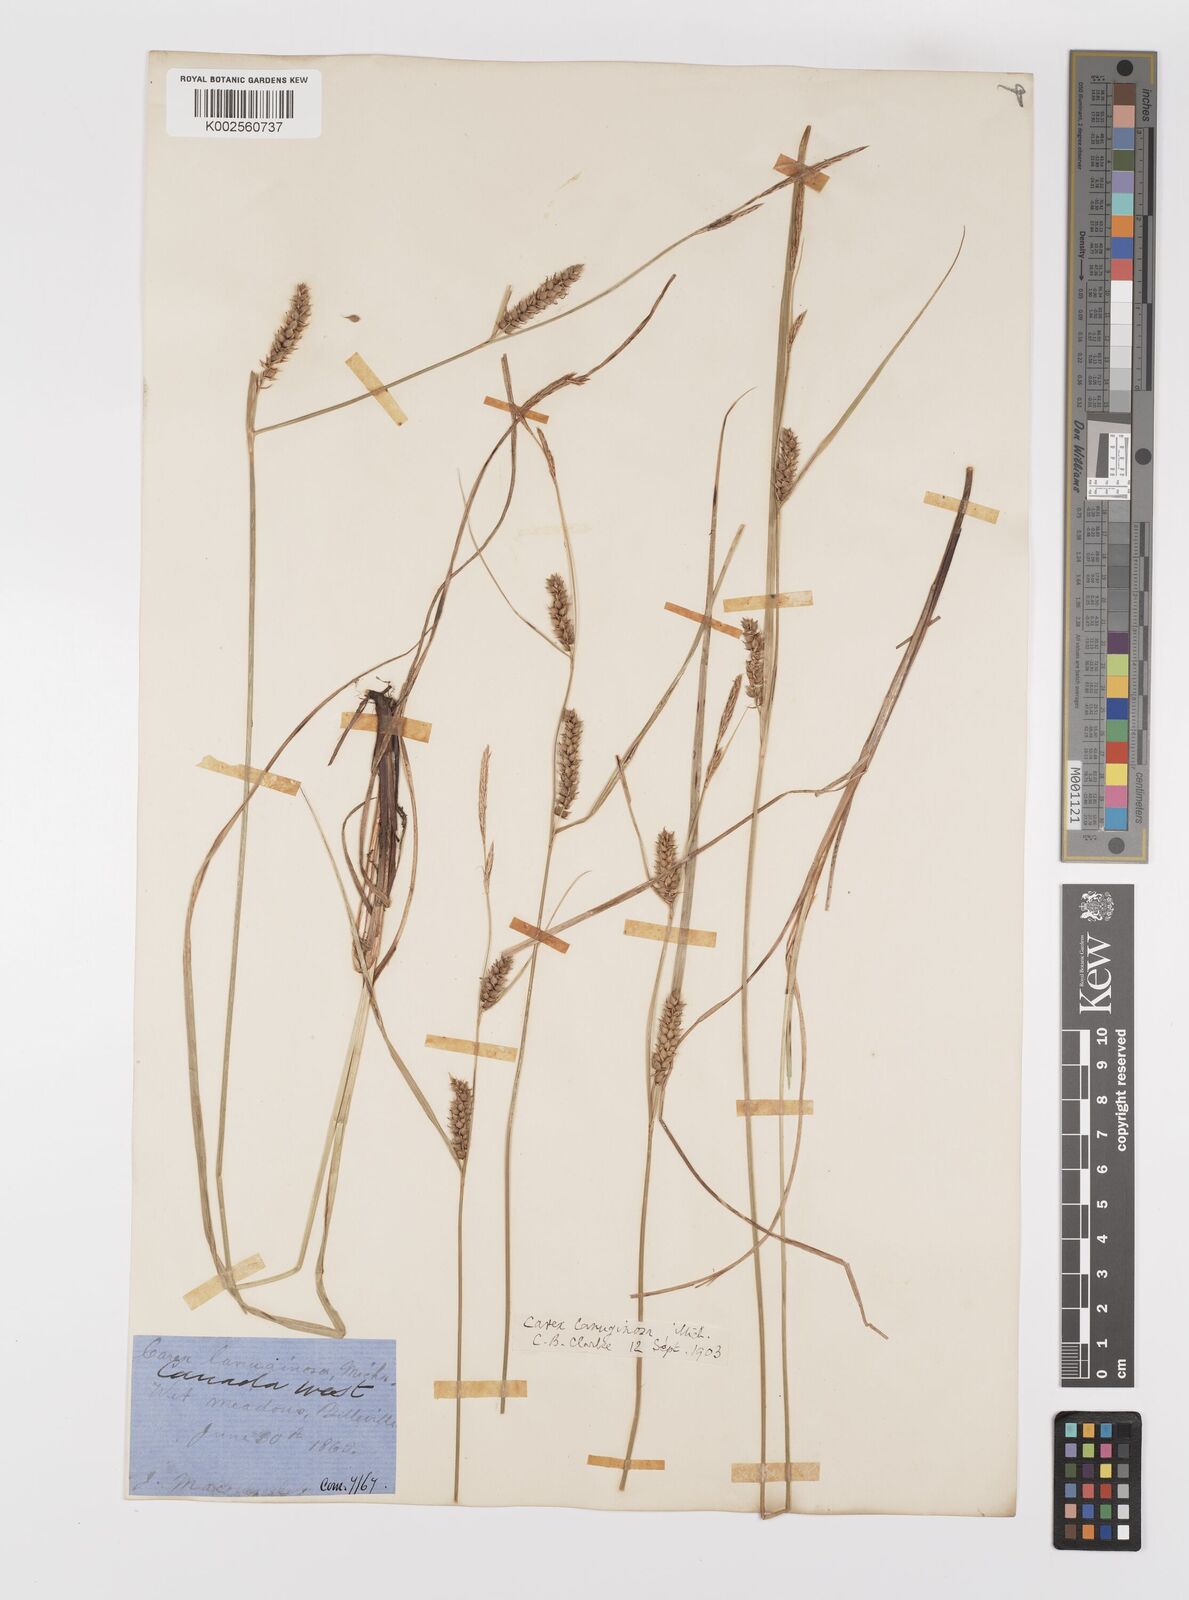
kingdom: Plantae
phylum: Tracheophyta
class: Liliopsida
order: Poales
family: Cyperaceae
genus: Carex
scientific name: Carex lasiocarpa
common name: Slender sedge
